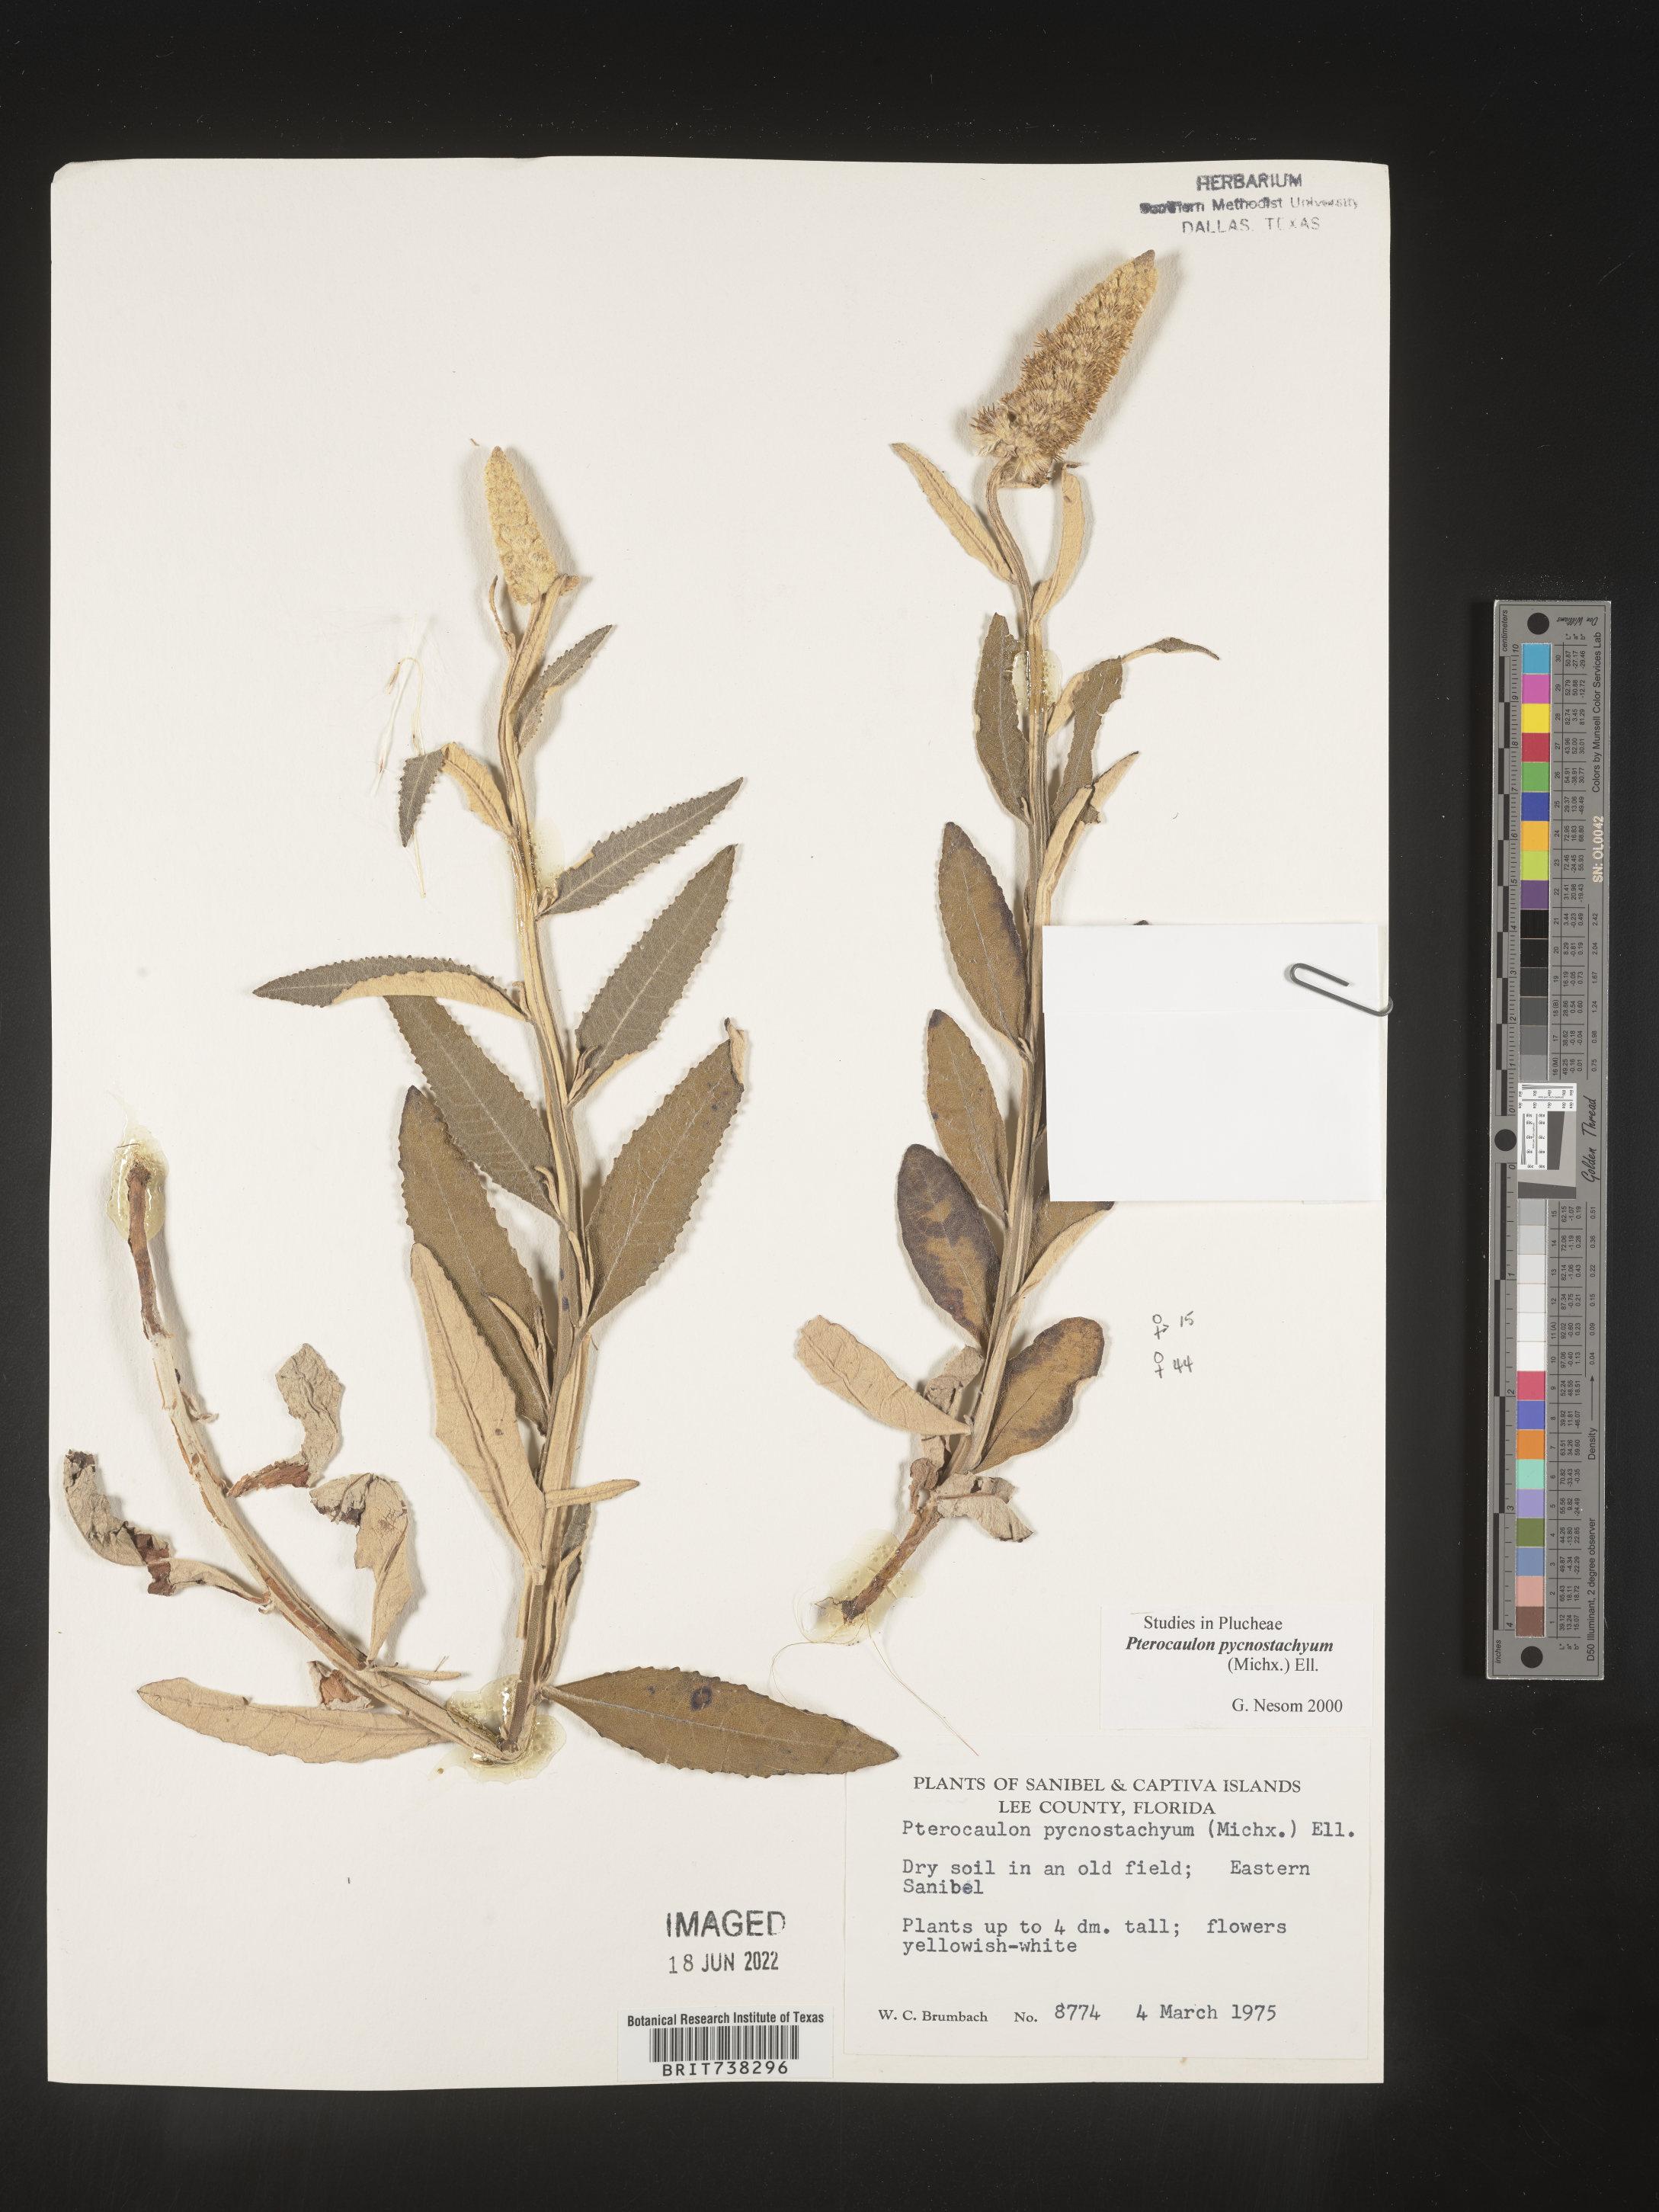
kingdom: Plantae
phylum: Tracheophyta
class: Magnoliopsida
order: Asterales
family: Asteraceae
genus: Pterocaulon
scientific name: Pterocaulon pycnostachyum
